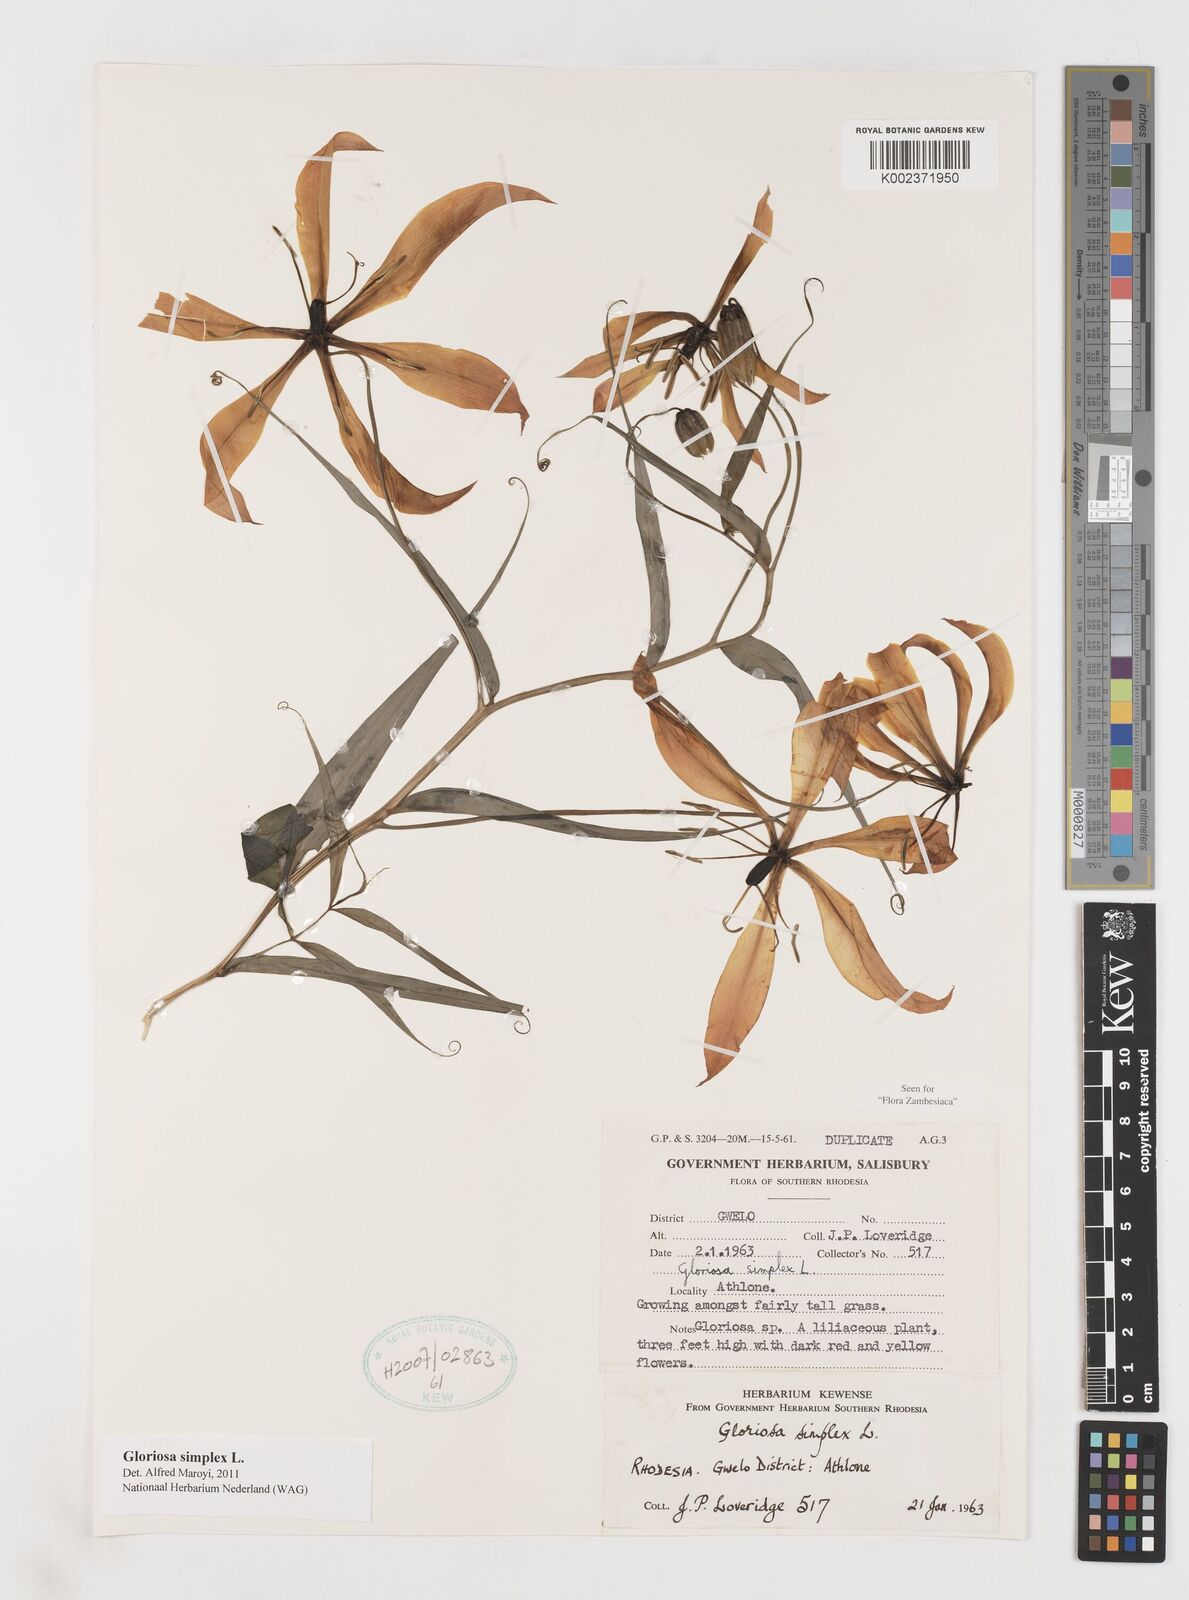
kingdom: Plantae
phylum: Tracheophyta
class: Liliopsida
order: Liliales
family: Colchicaceae
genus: Gloriosa
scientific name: Gloriosa simplex
